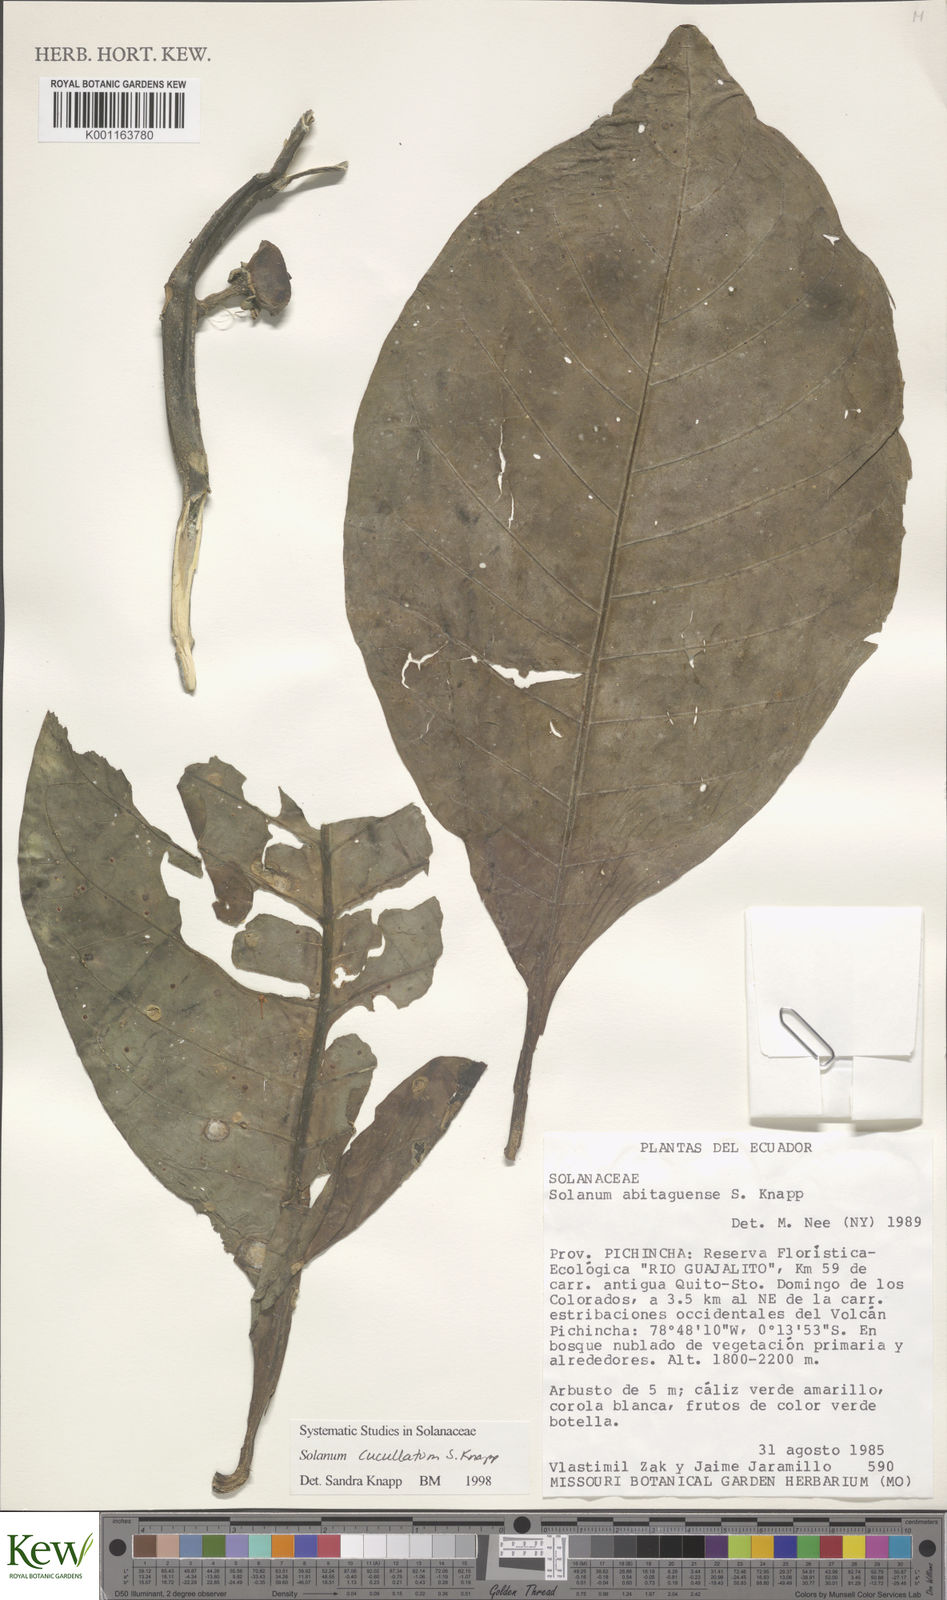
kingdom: Plantae
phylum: Tracheophyta
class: Magnoliopsida
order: Solanales
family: Solanaceae
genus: Solanum
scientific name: Solanum cucullatum
